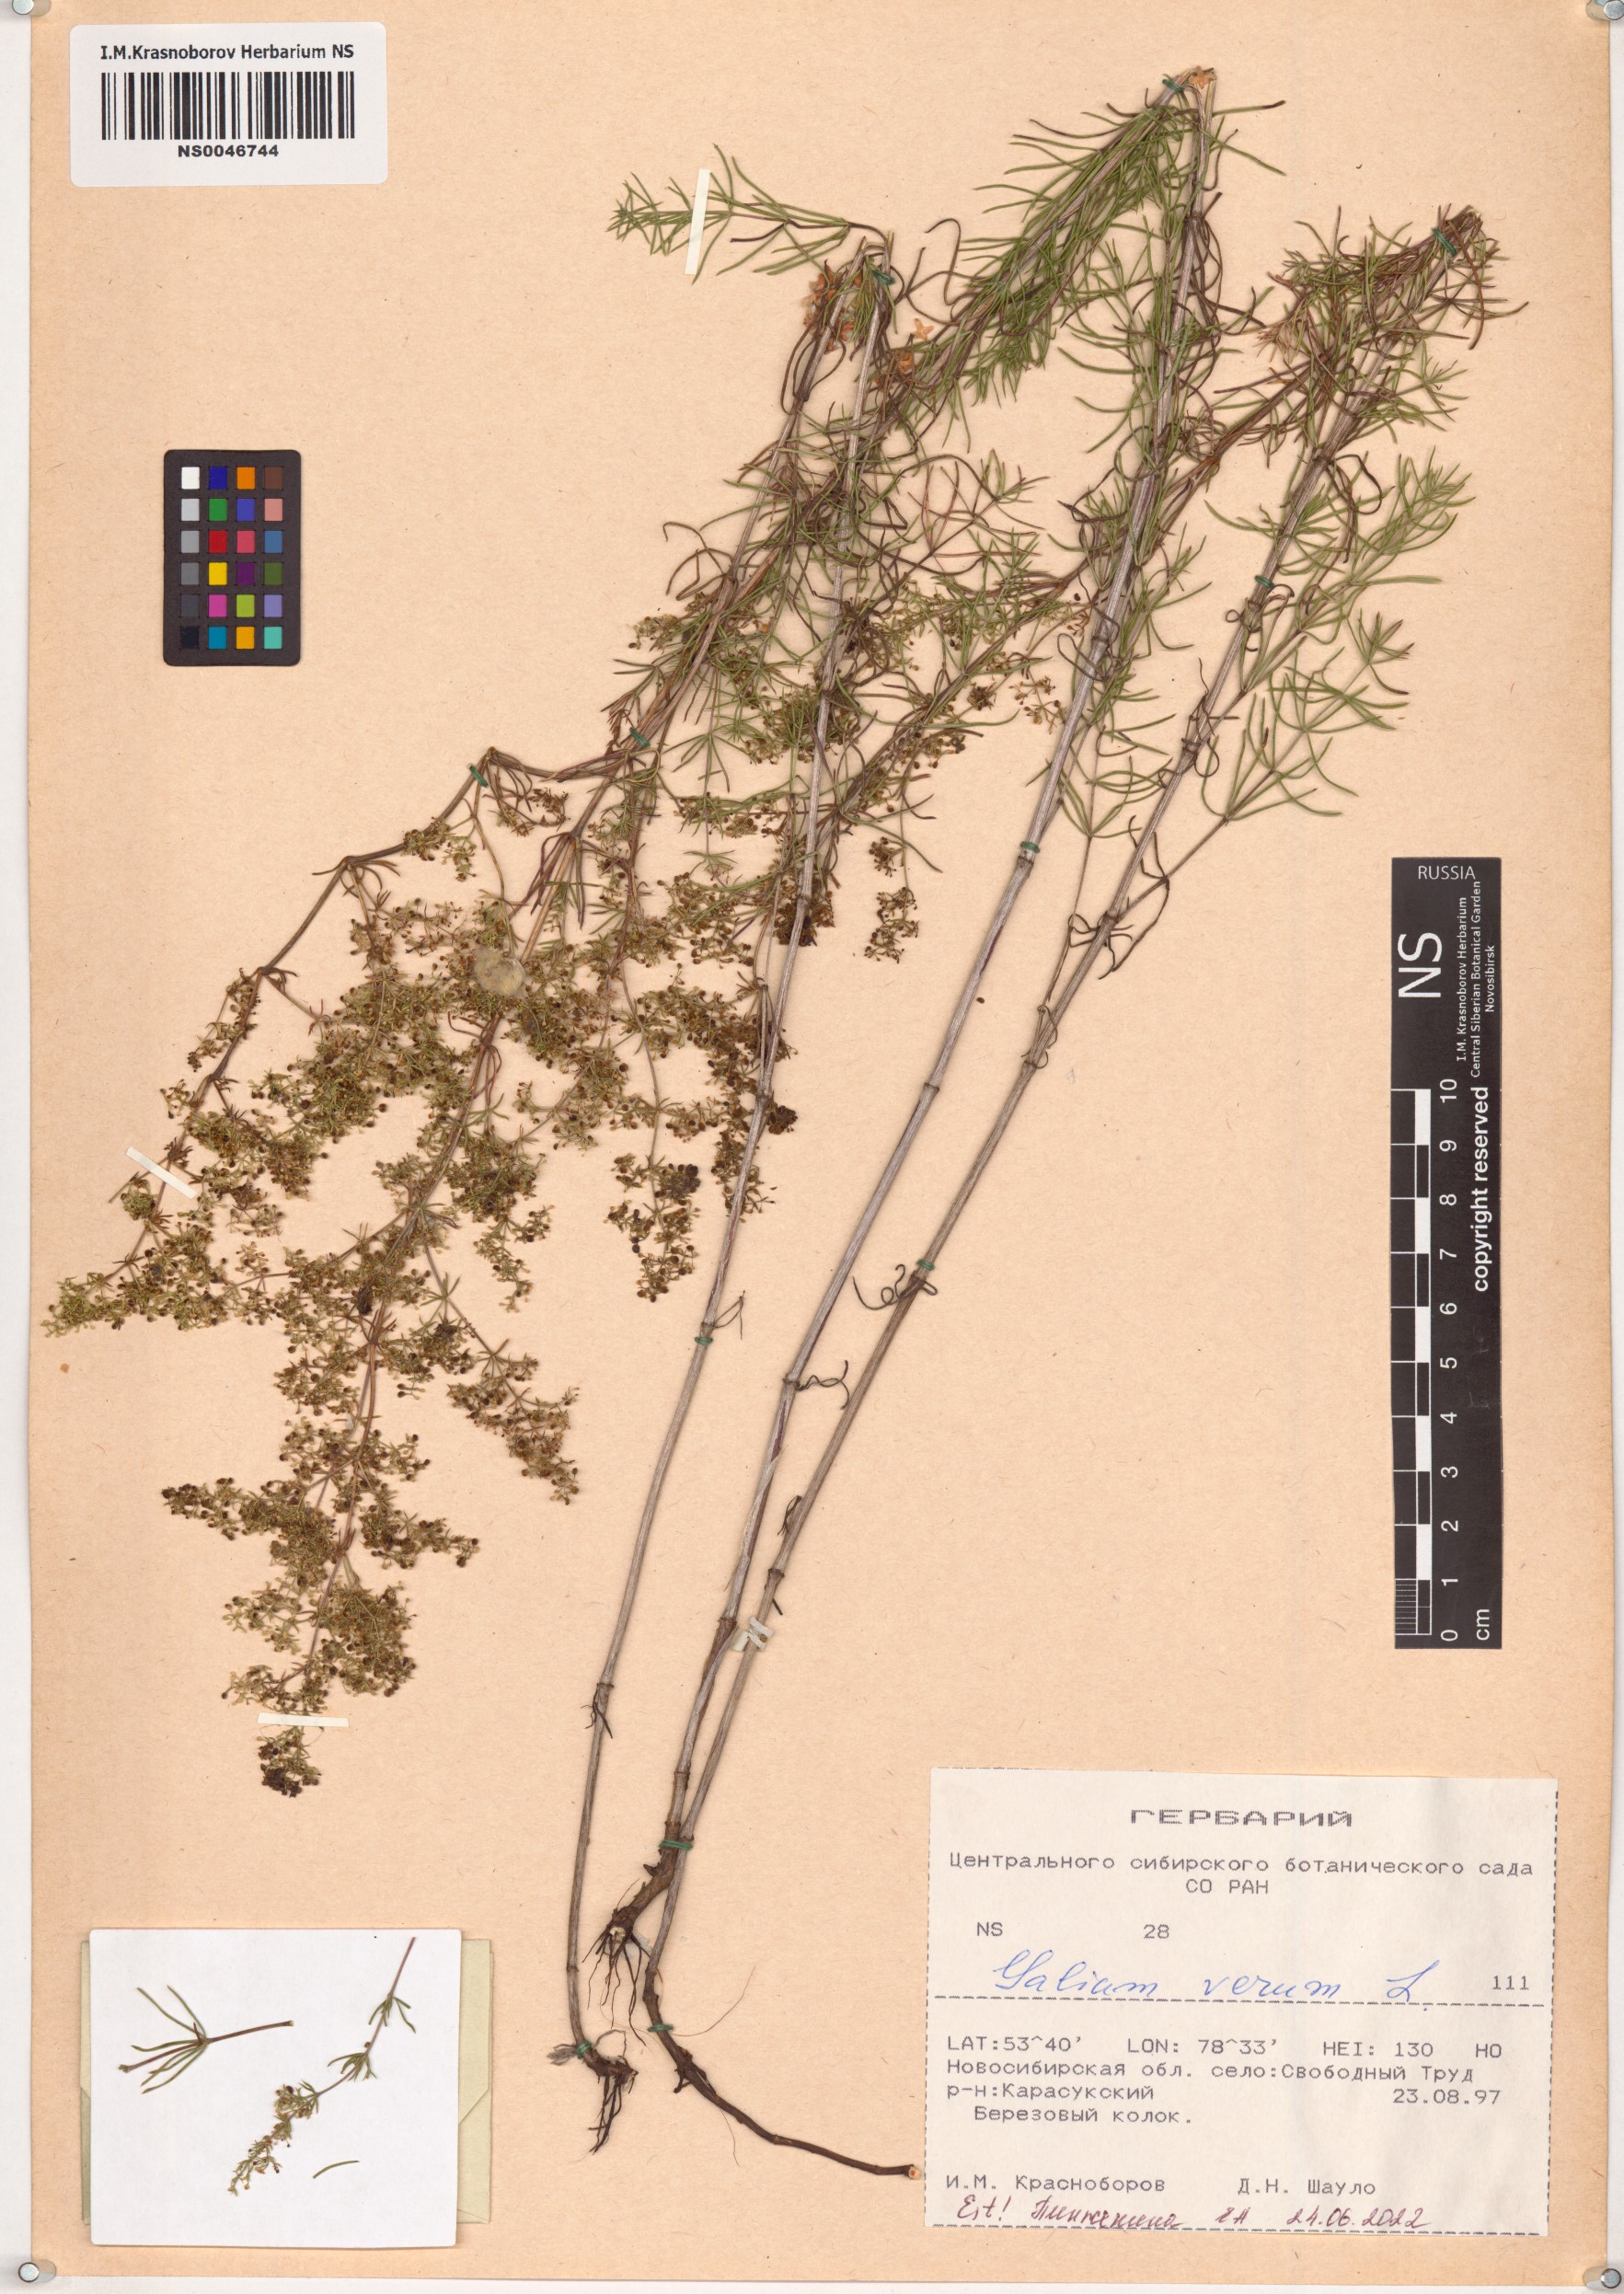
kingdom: Plantae
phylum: Tracheophyta
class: Magnoliopsida
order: Gentianales
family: Rubiaceae
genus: Galium
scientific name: Galium verum
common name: Lady's bedstraw
